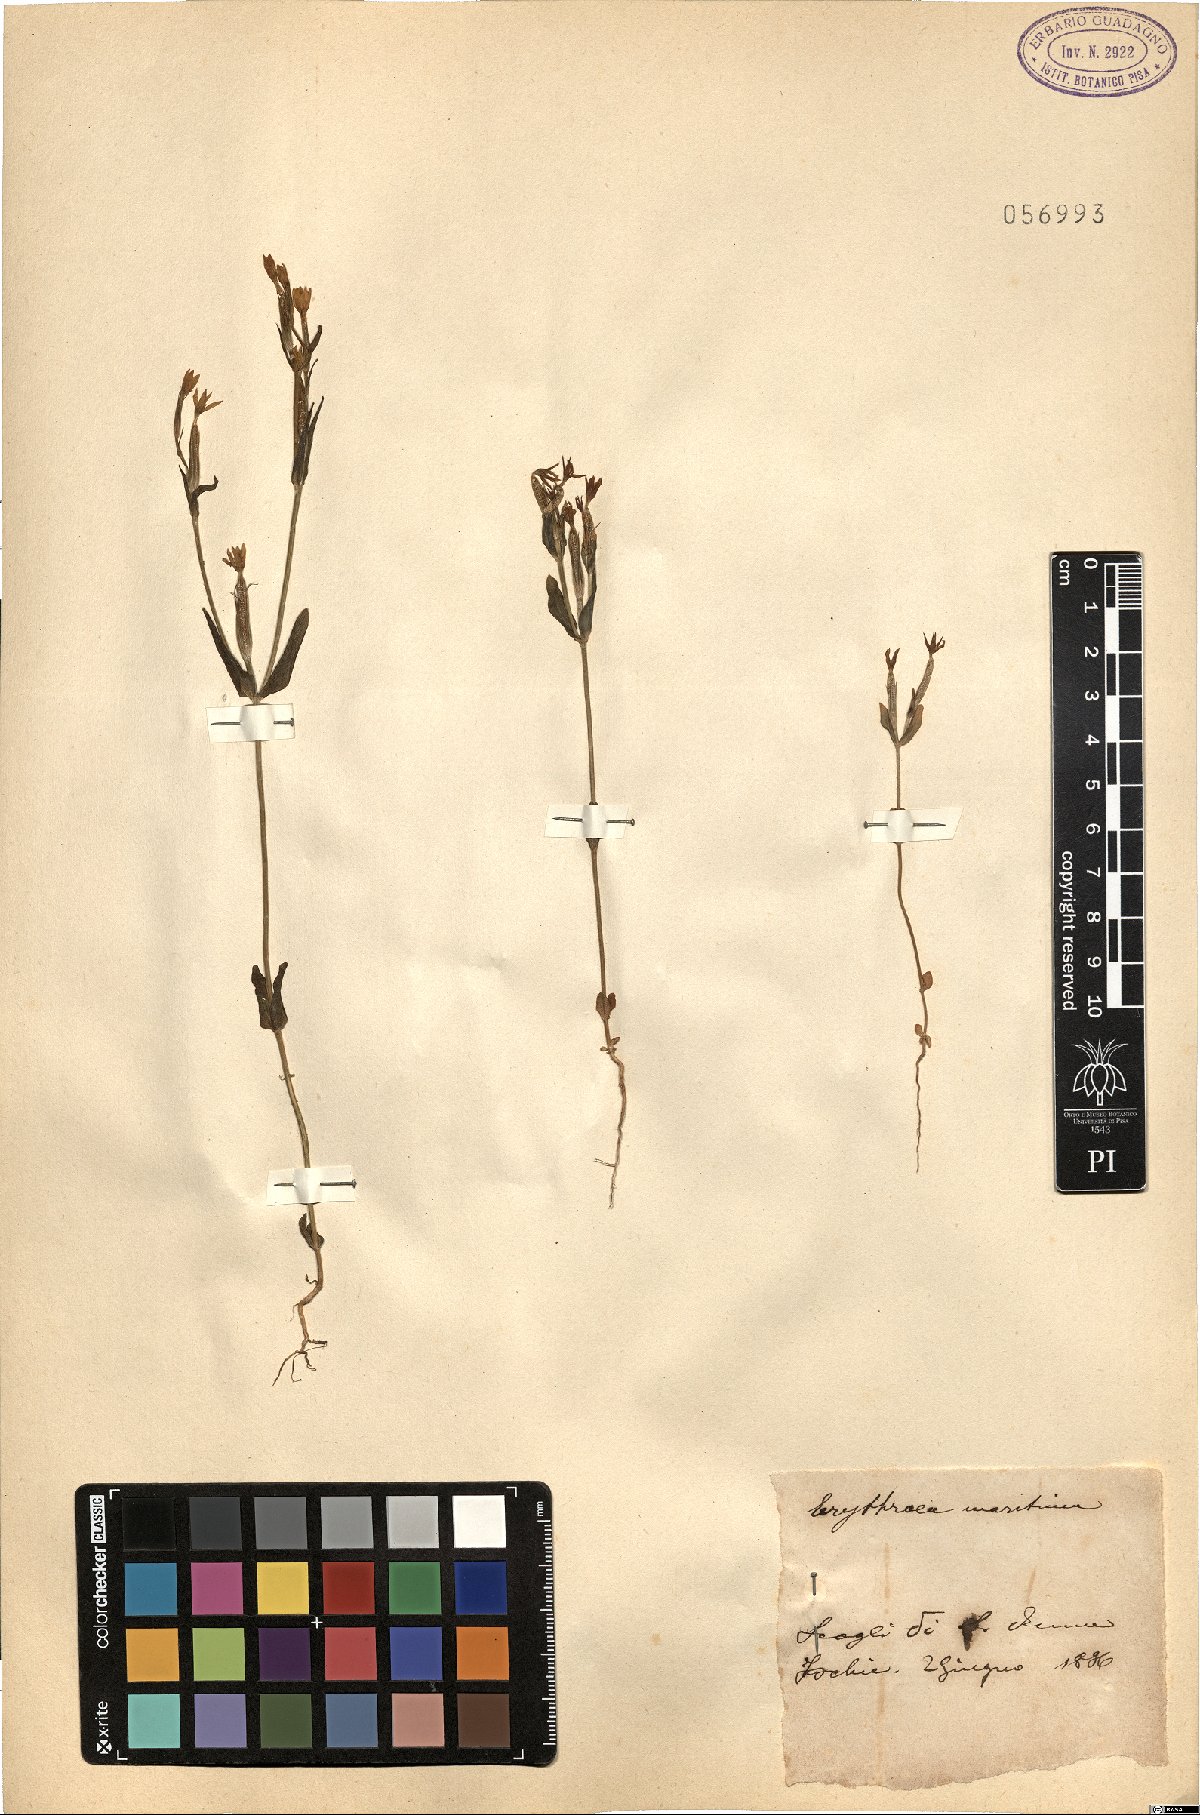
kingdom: Plantae
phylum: Tracheophyta
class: Magnoliopsida
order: Gentianales
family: Gentianaceae
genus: Centaurium
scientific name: Centaurium maritimum
